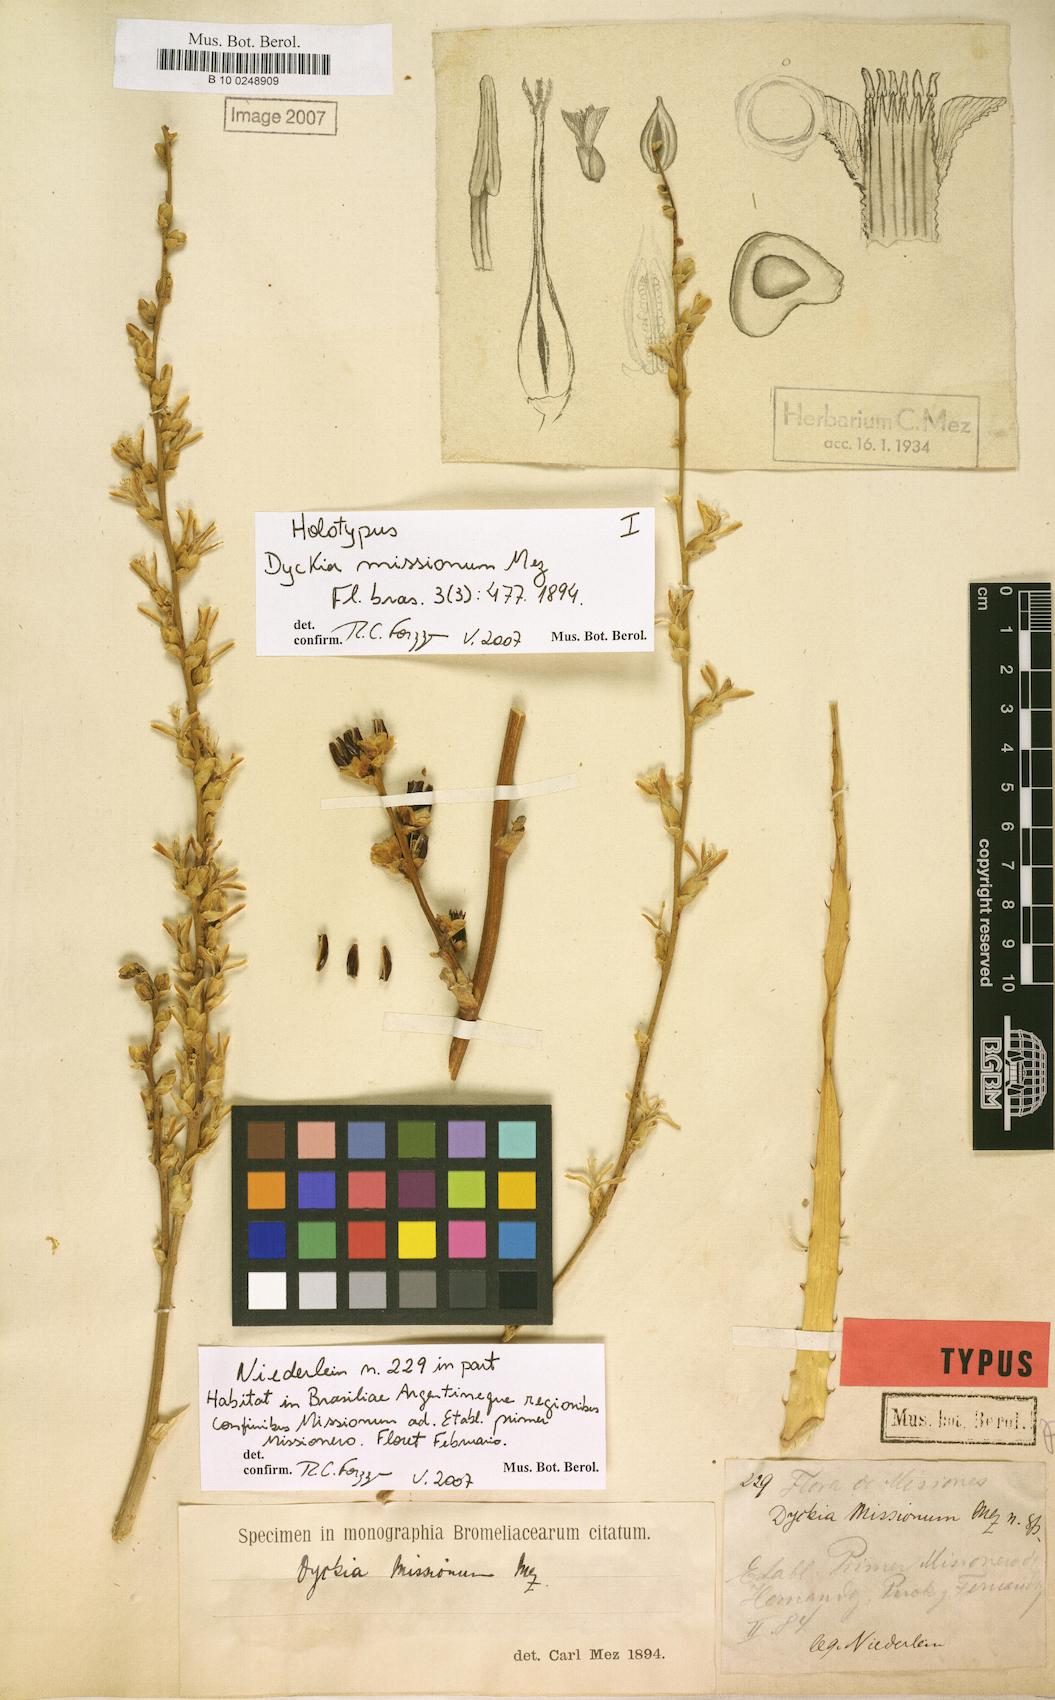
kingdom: Plantae
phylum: Tracheophyta
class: Liliopsida
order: Poales
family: Bromeliaceae
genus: Dyckia
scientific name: Dyckia niederleinii
